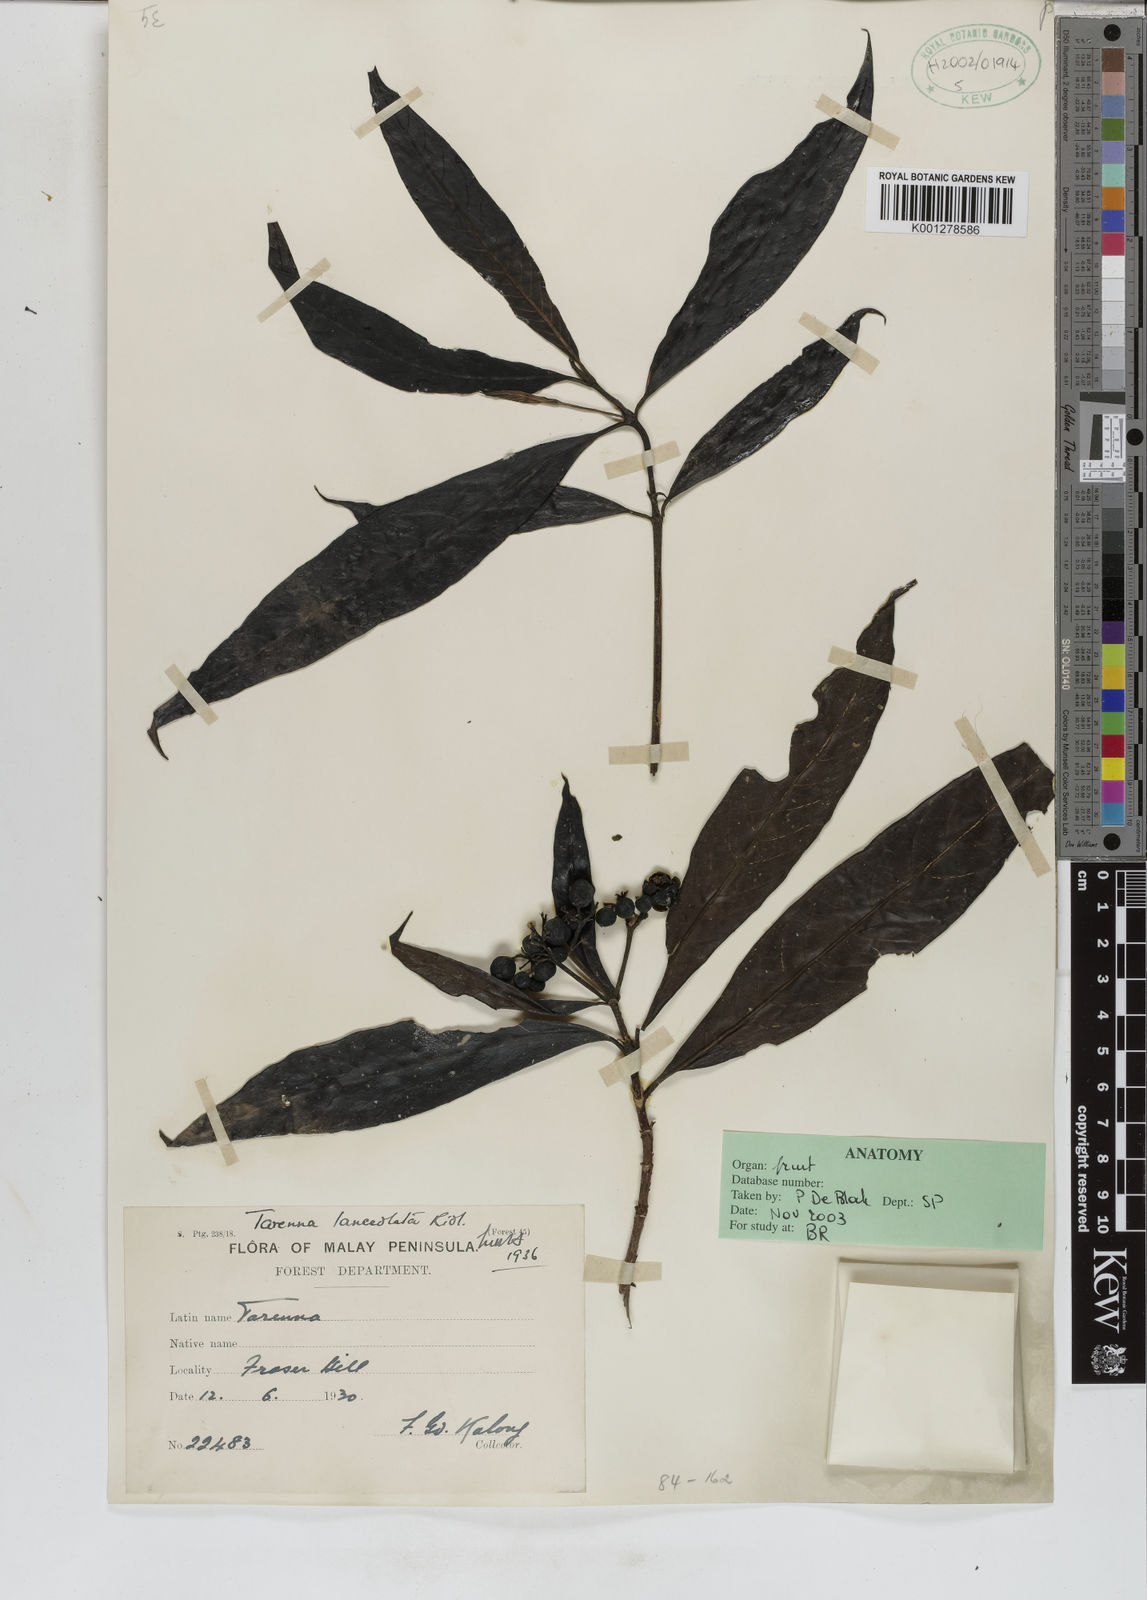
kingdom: Plantae
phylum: Tracheophyta
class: Magnoliopsida
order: Gentianales
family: Rubiaceae
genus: Tarenna
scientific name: Tarenna lanceolata
